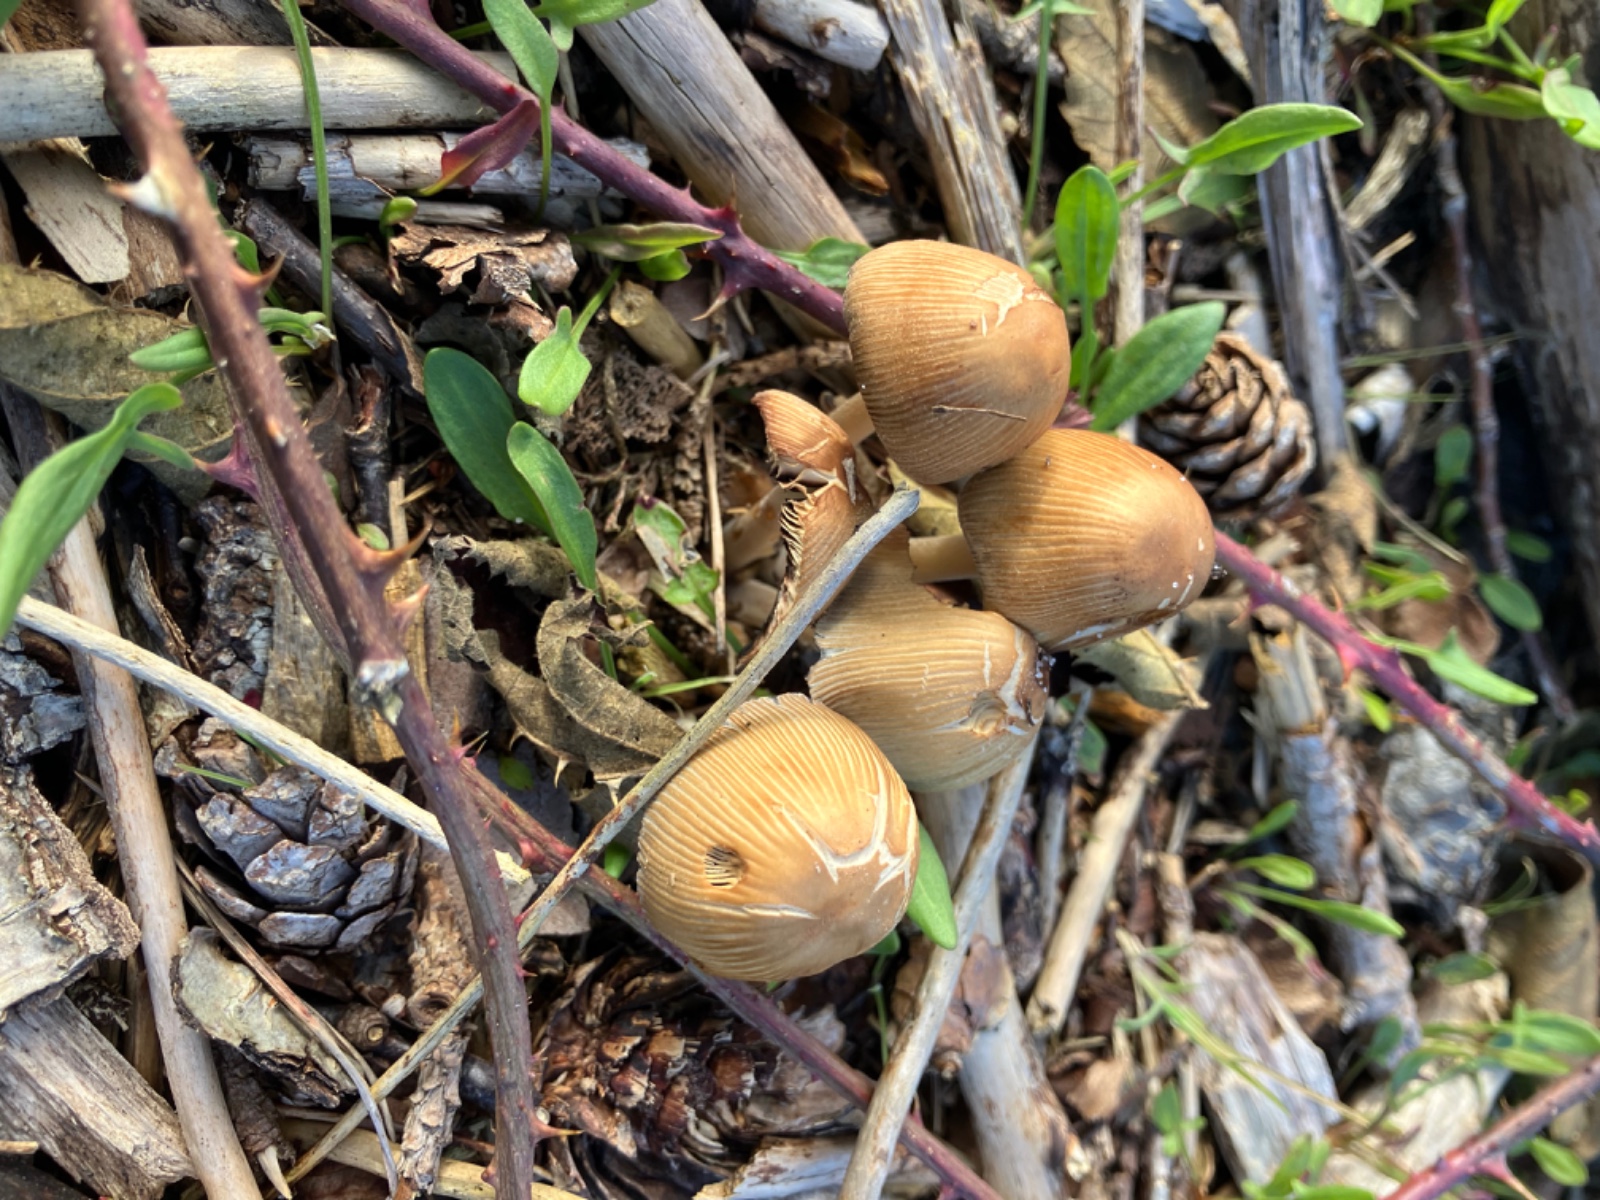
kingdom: Fungi
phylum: Basidiomycota
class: Agaricomycetes
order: Agaricales
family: Psathyrellaceae
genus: Coprinellus
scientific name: Coprinellus micaceus
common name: glimmer-blækhat
